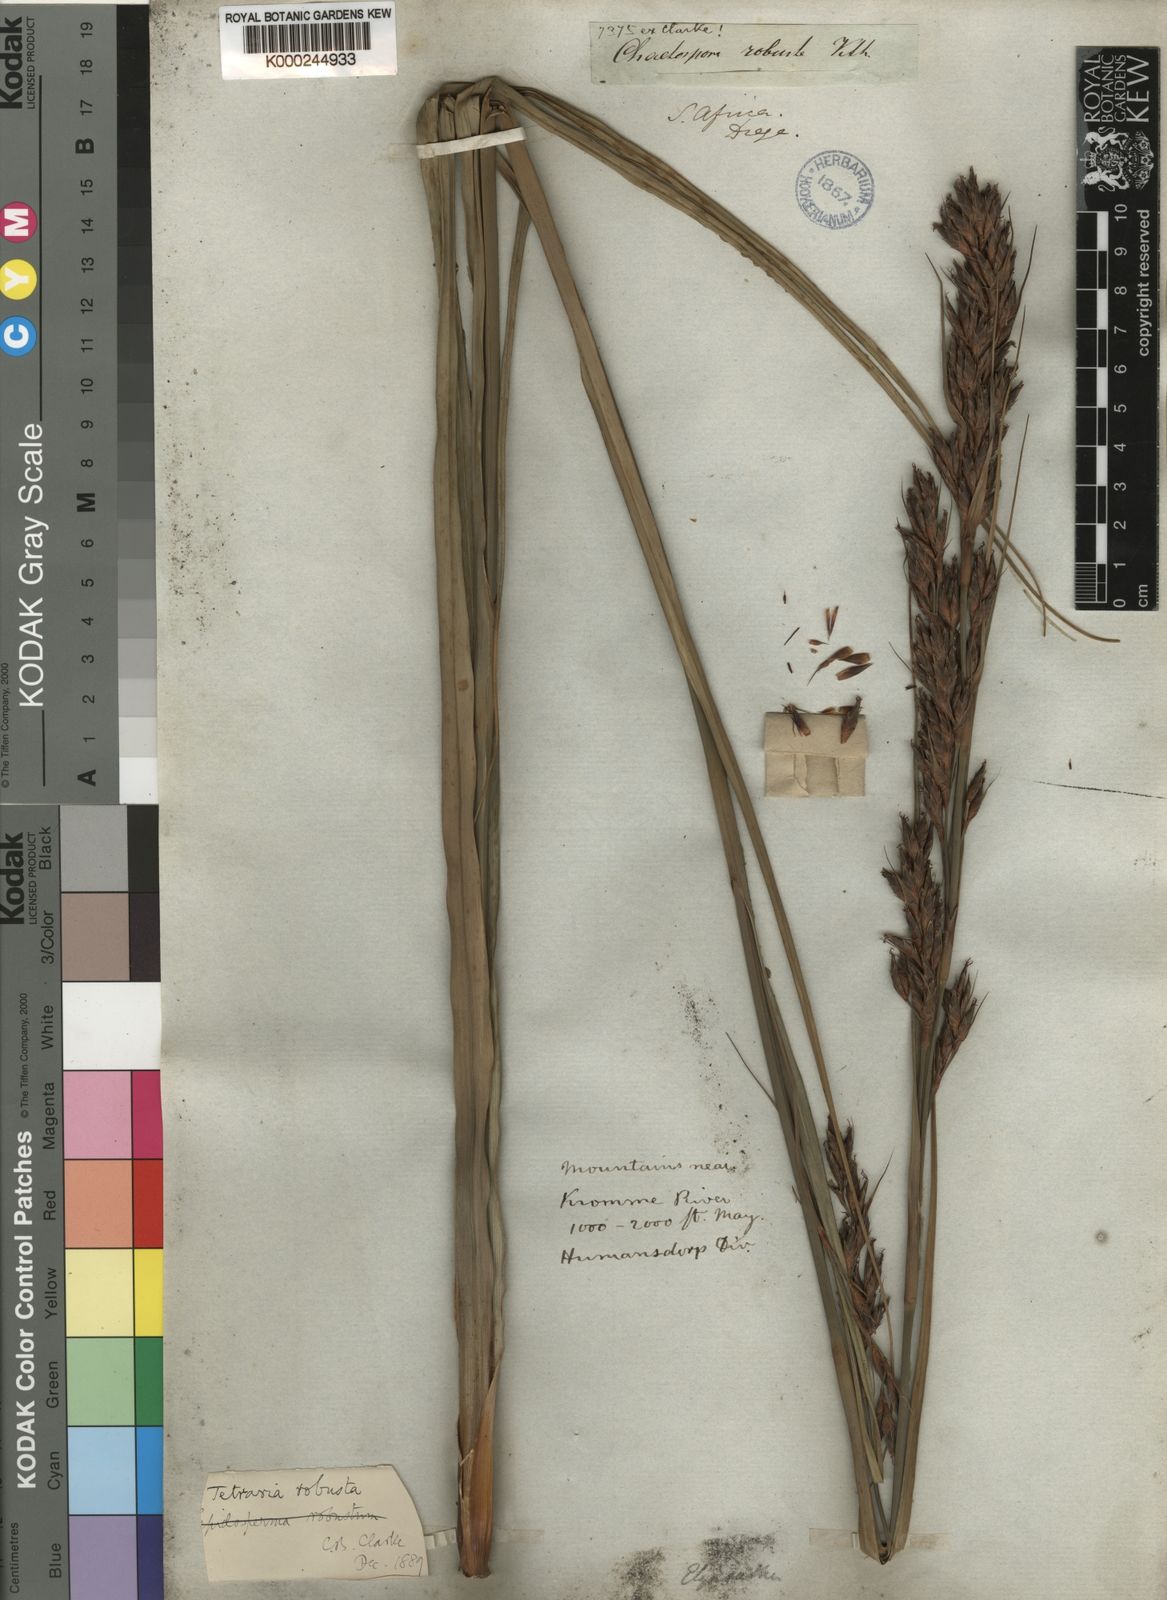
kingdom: Plantae
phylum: Tracheophyta
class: Liliopsida
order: Poales
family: Cyperaceae
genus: Tetraria
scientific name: Tetraria robusta
